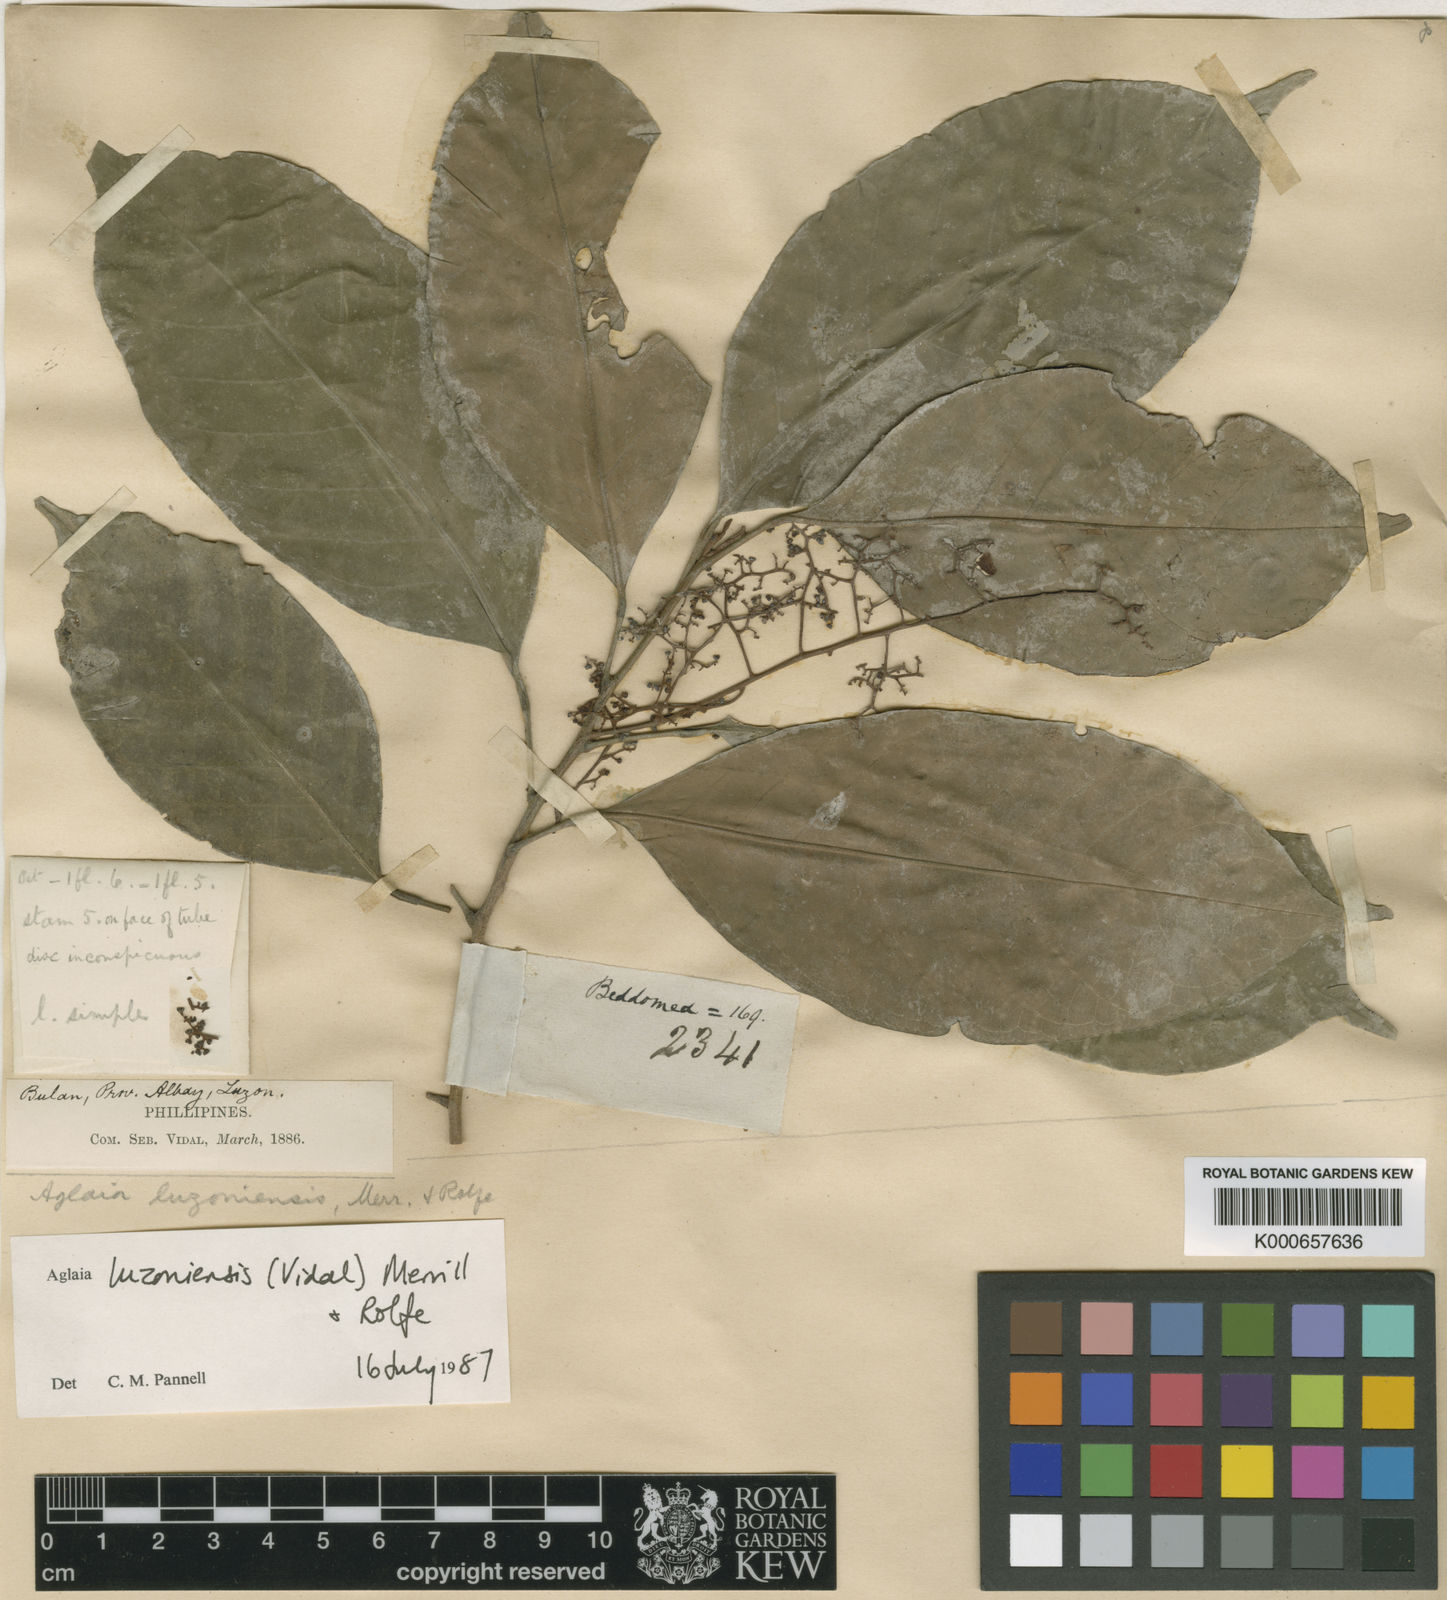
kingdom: Plantae
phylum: Tracheophyta
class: Magnoliopsida
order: Sapindales
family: Meliaceae
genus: Aglaia
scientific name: Aglaia luzoniensis
